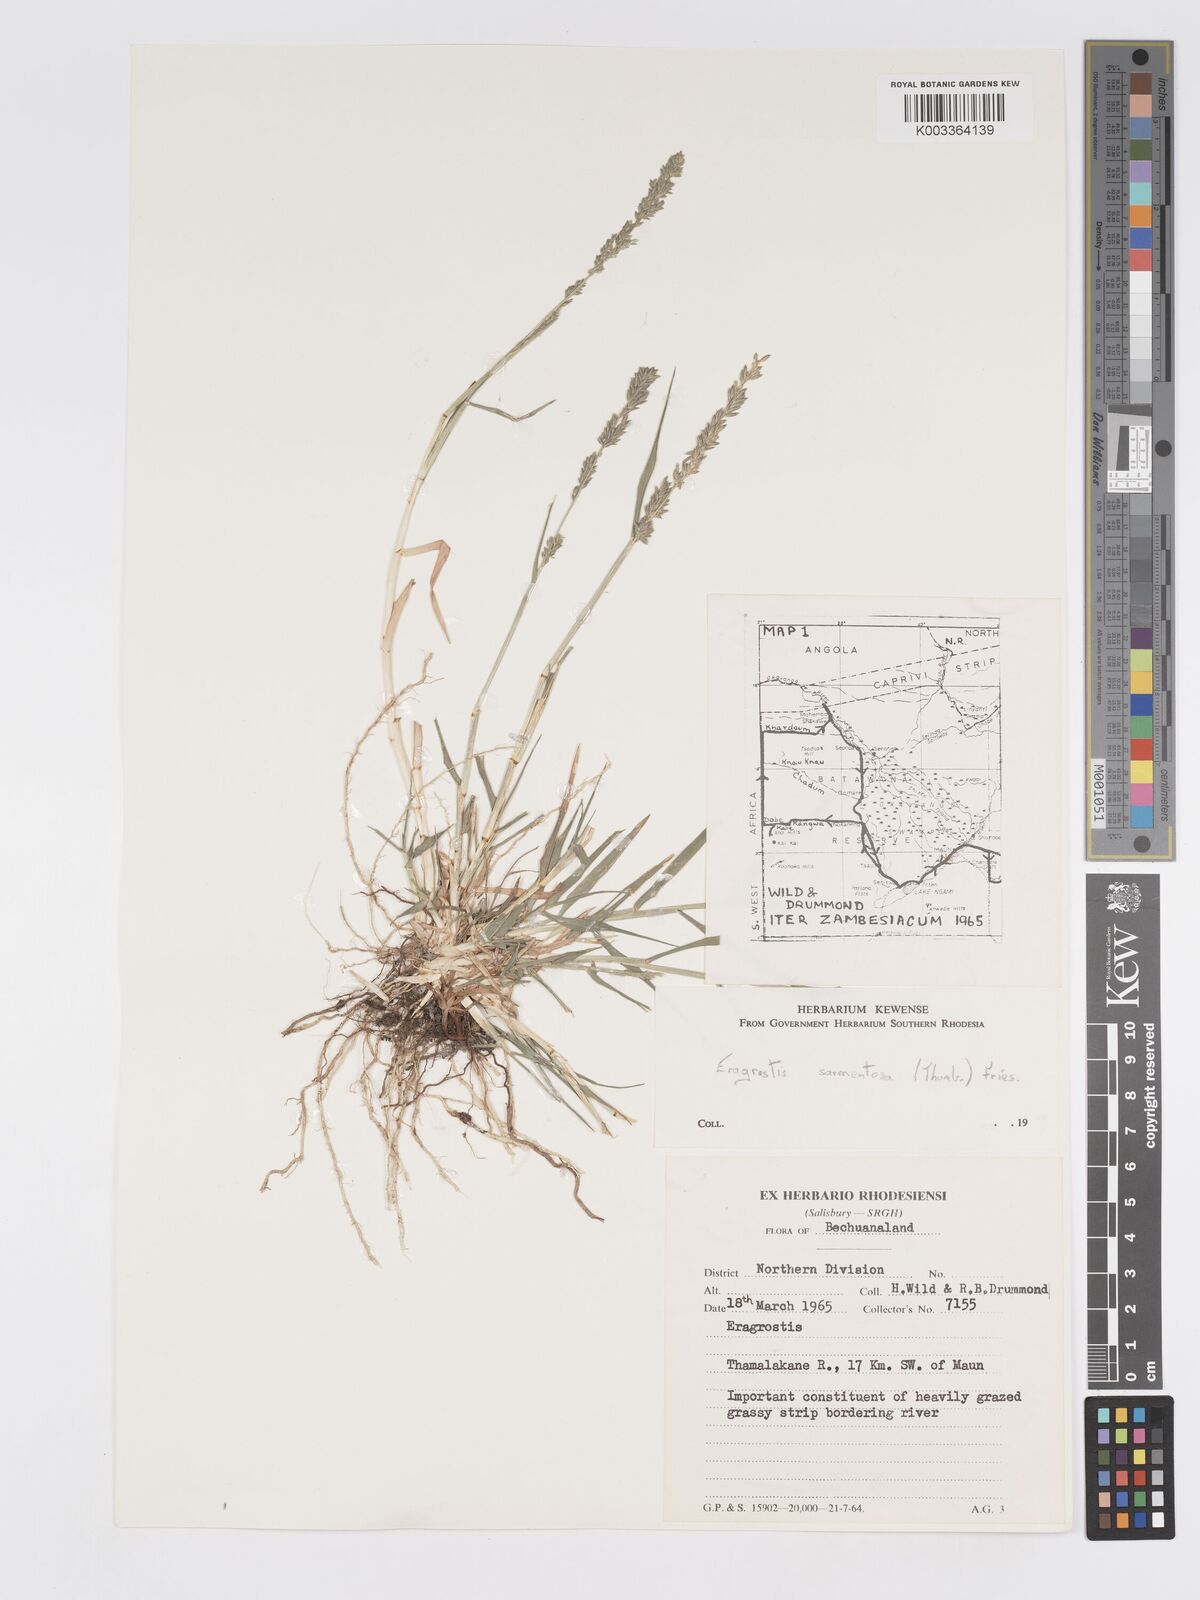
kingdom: Plantae
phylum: Tracheophyta
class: Liliopsida
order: Poales
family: Poaceae
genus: Eragrostis
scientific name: Eragrostis sarmentosa
